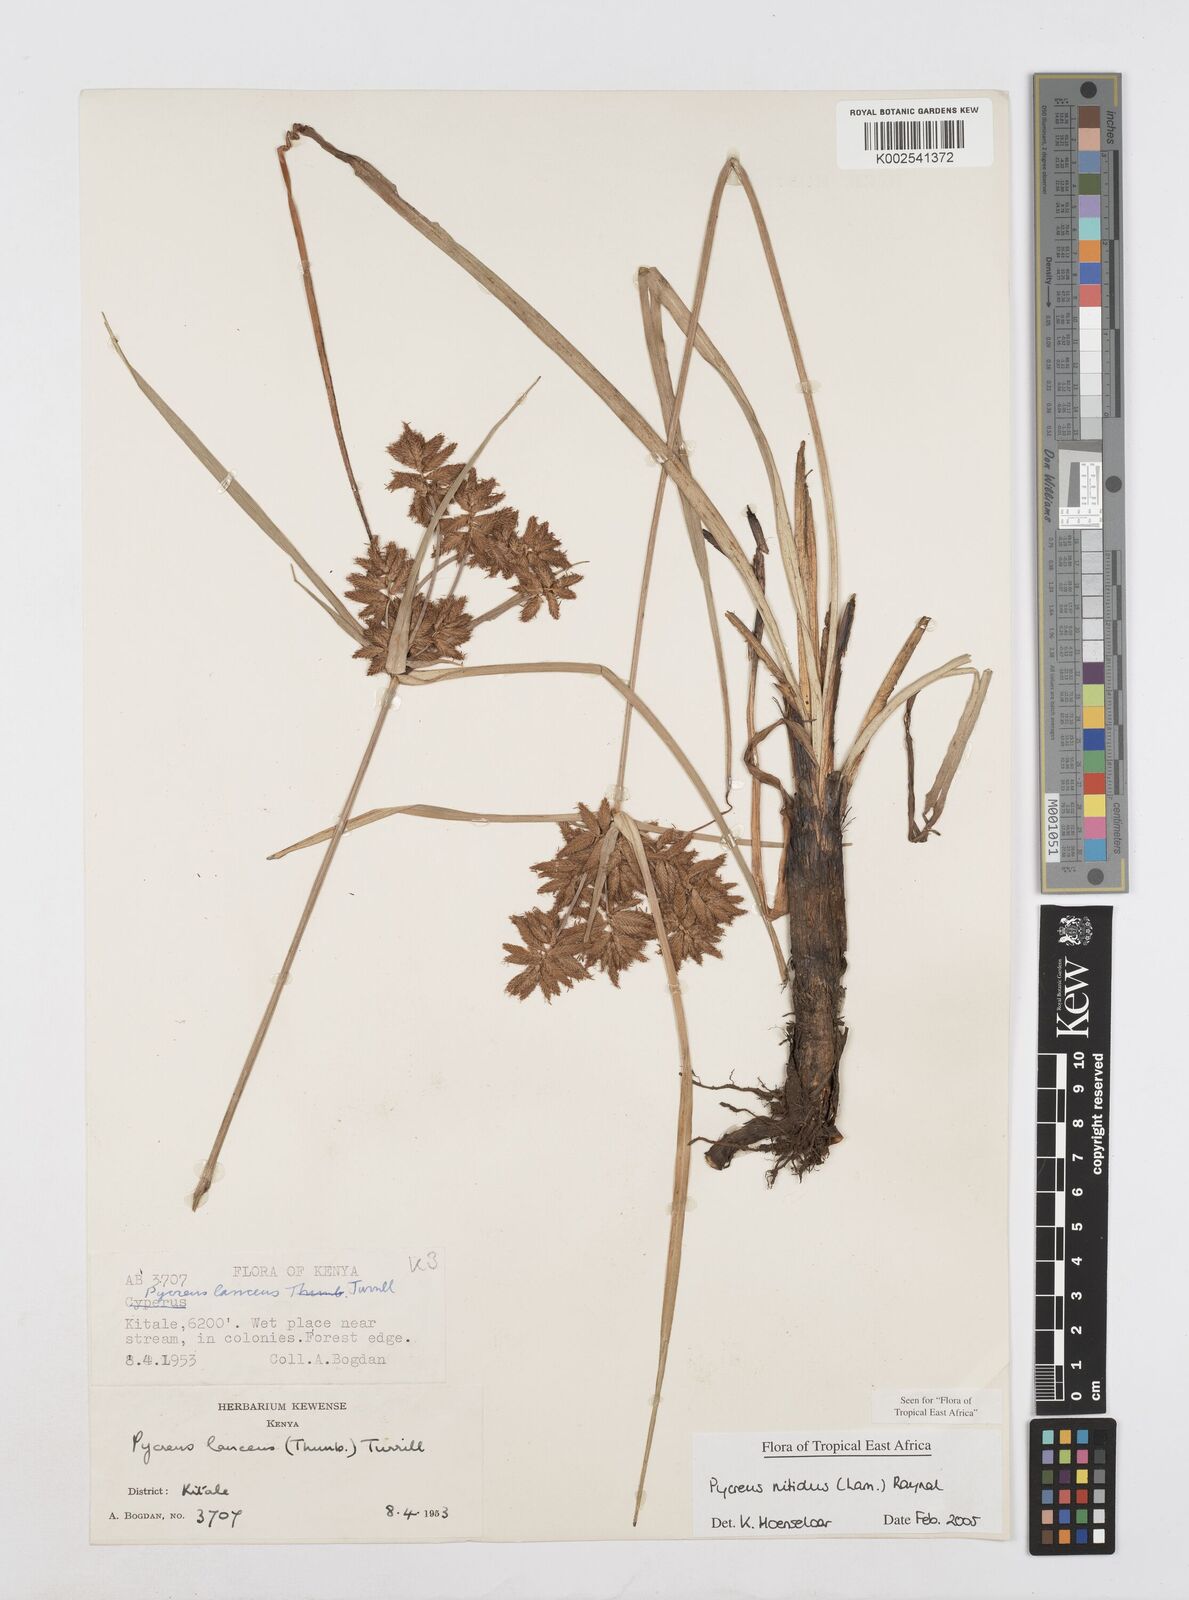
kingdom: Plantae
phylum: Tracheophyta
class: Liliopsida
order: Poales
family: Cyperaceae
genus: Cyperus
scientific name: Cyperus nitidus
